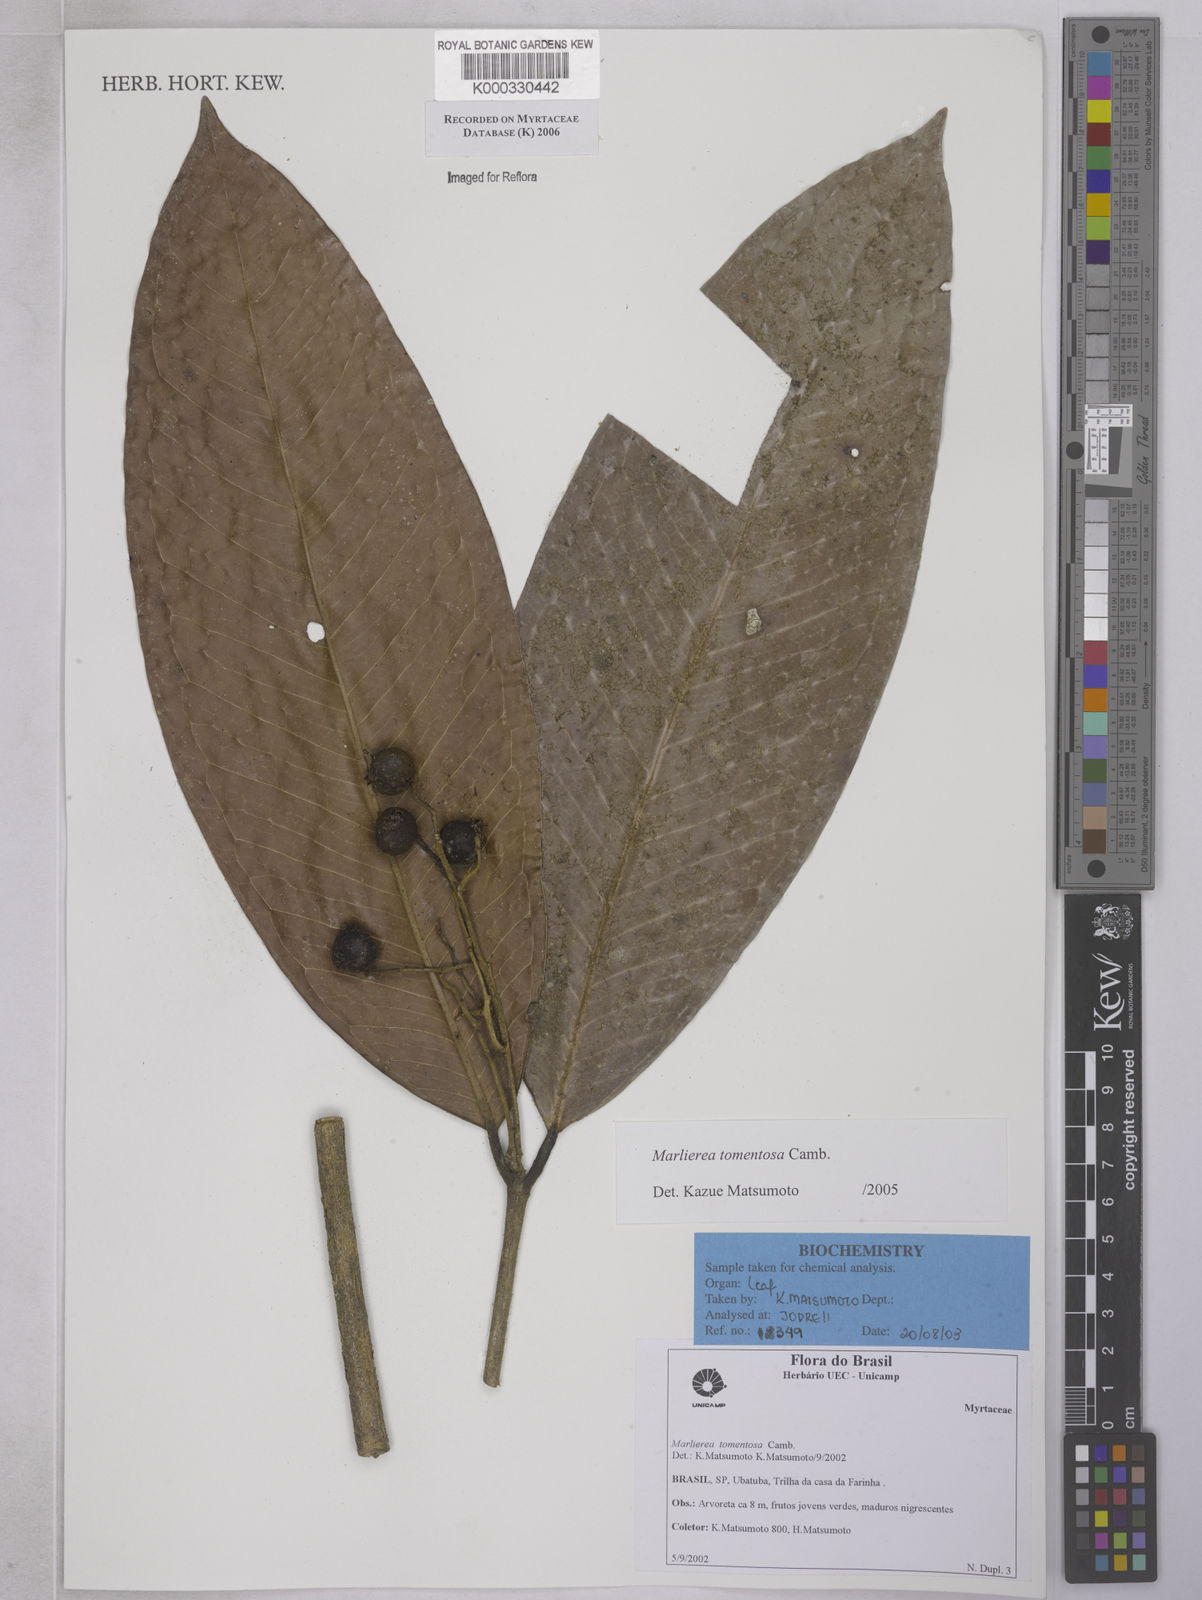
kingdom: Plantae
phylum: Tracheophyta
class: Magnoliopsida
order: Myrtales
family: Myrtaceae
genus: Myrcia
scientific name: Myrcia neotomentosa
